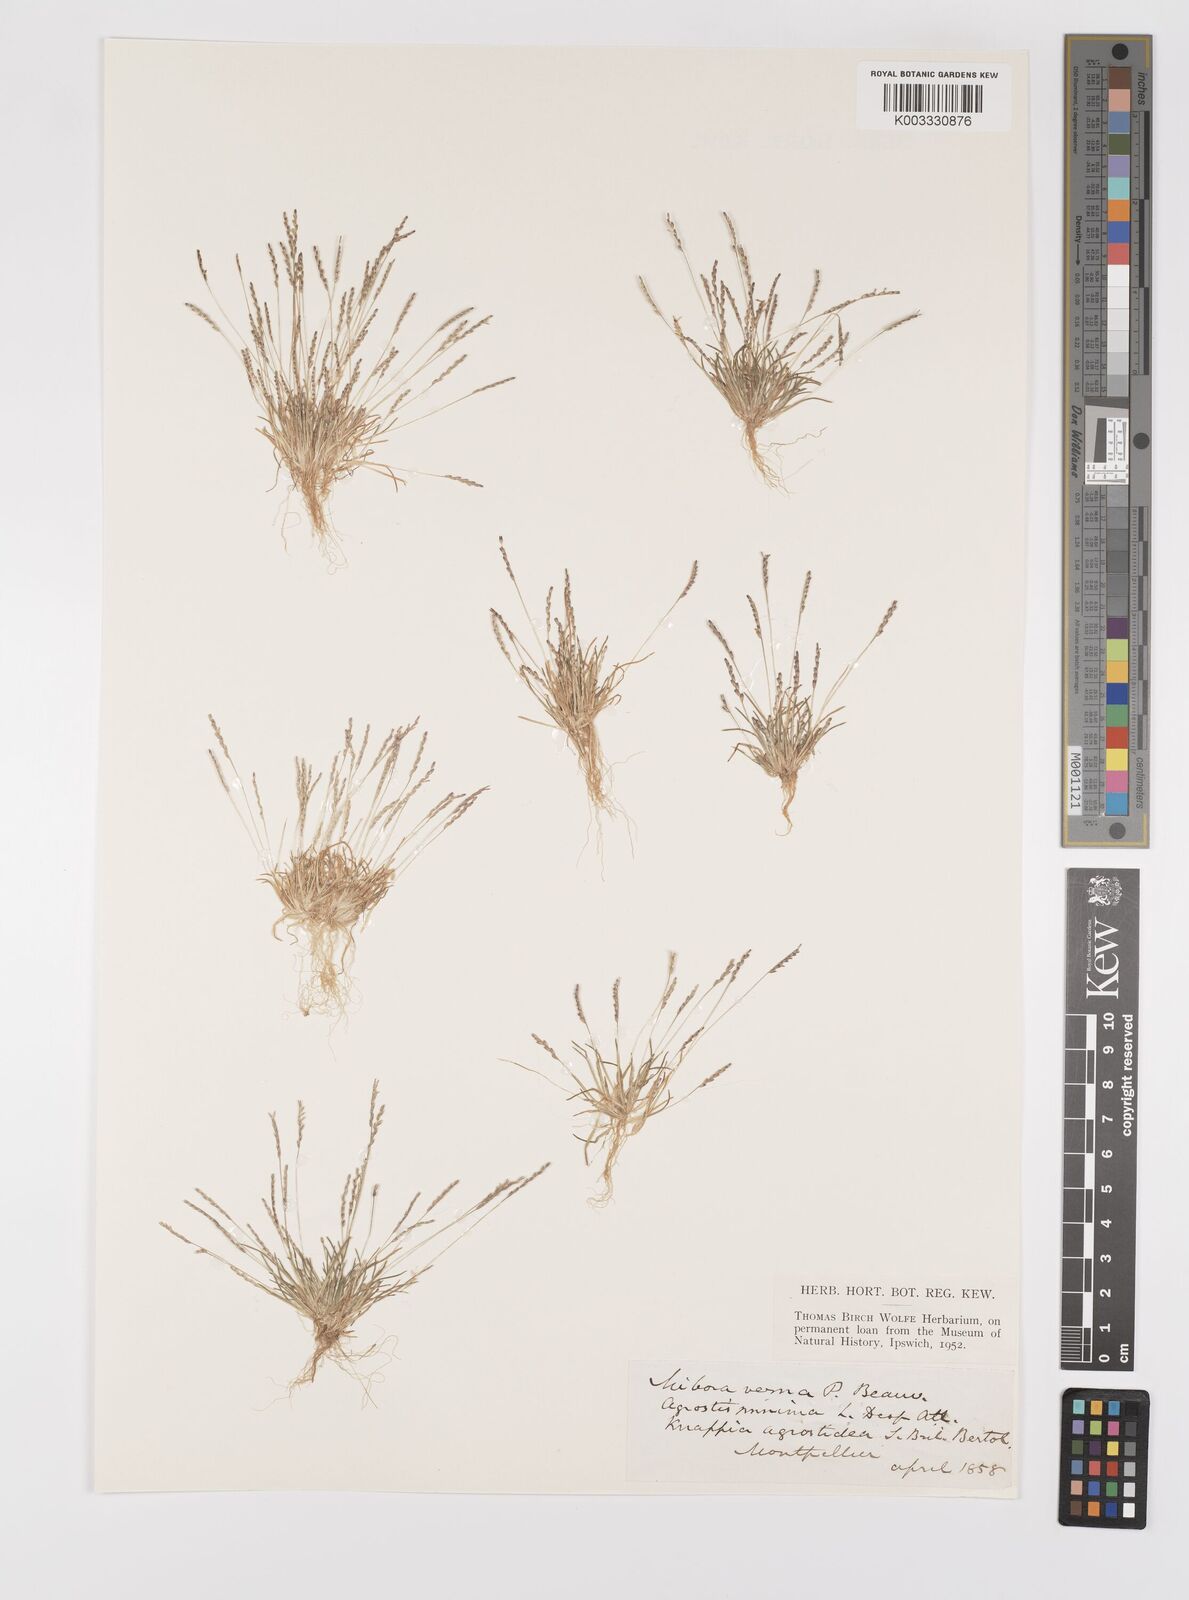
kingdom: Plantae
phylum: Tracheophyta
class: Liliopsida
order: Poales
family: Poaceae
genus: Mibora
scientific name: Mibora minima
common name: Early sand-grass
